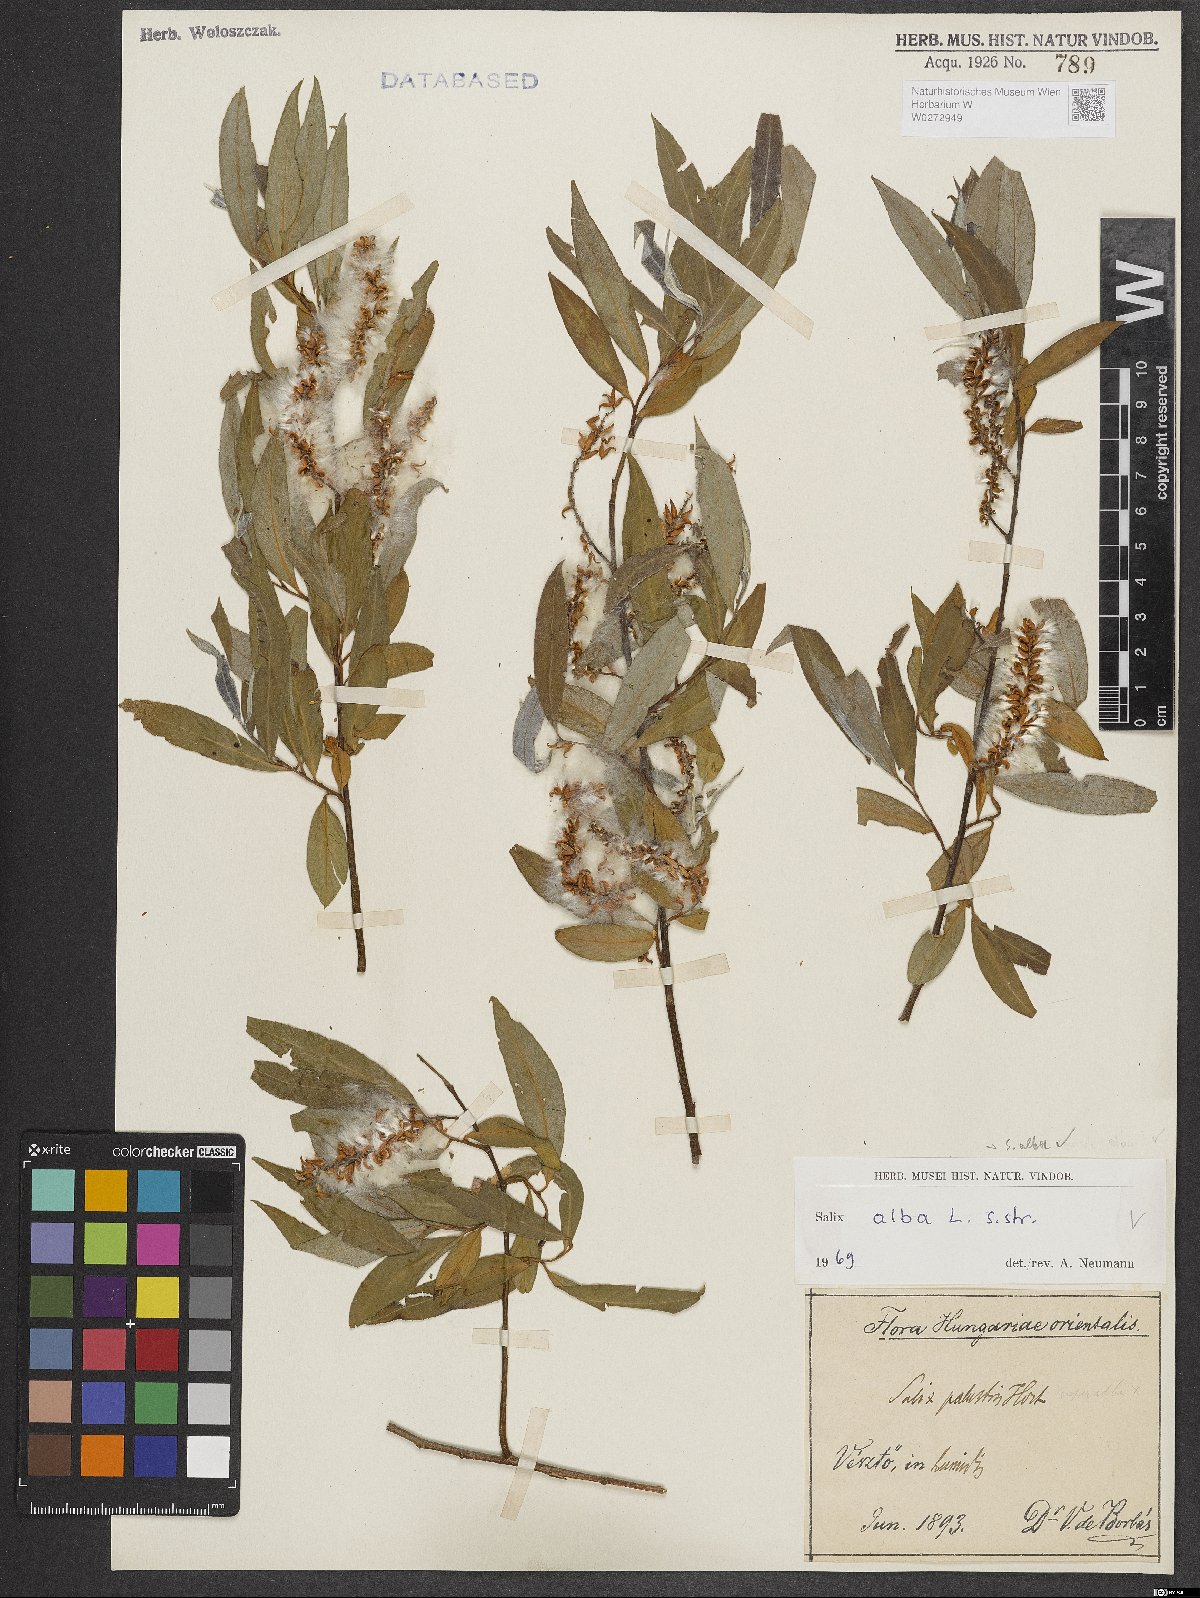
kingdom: Plantae
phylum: Tracheophyta
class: Magnoliopsida
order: Malpighiales
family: Salicaceae
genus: Salix
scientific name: Salix alba
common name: White willow
